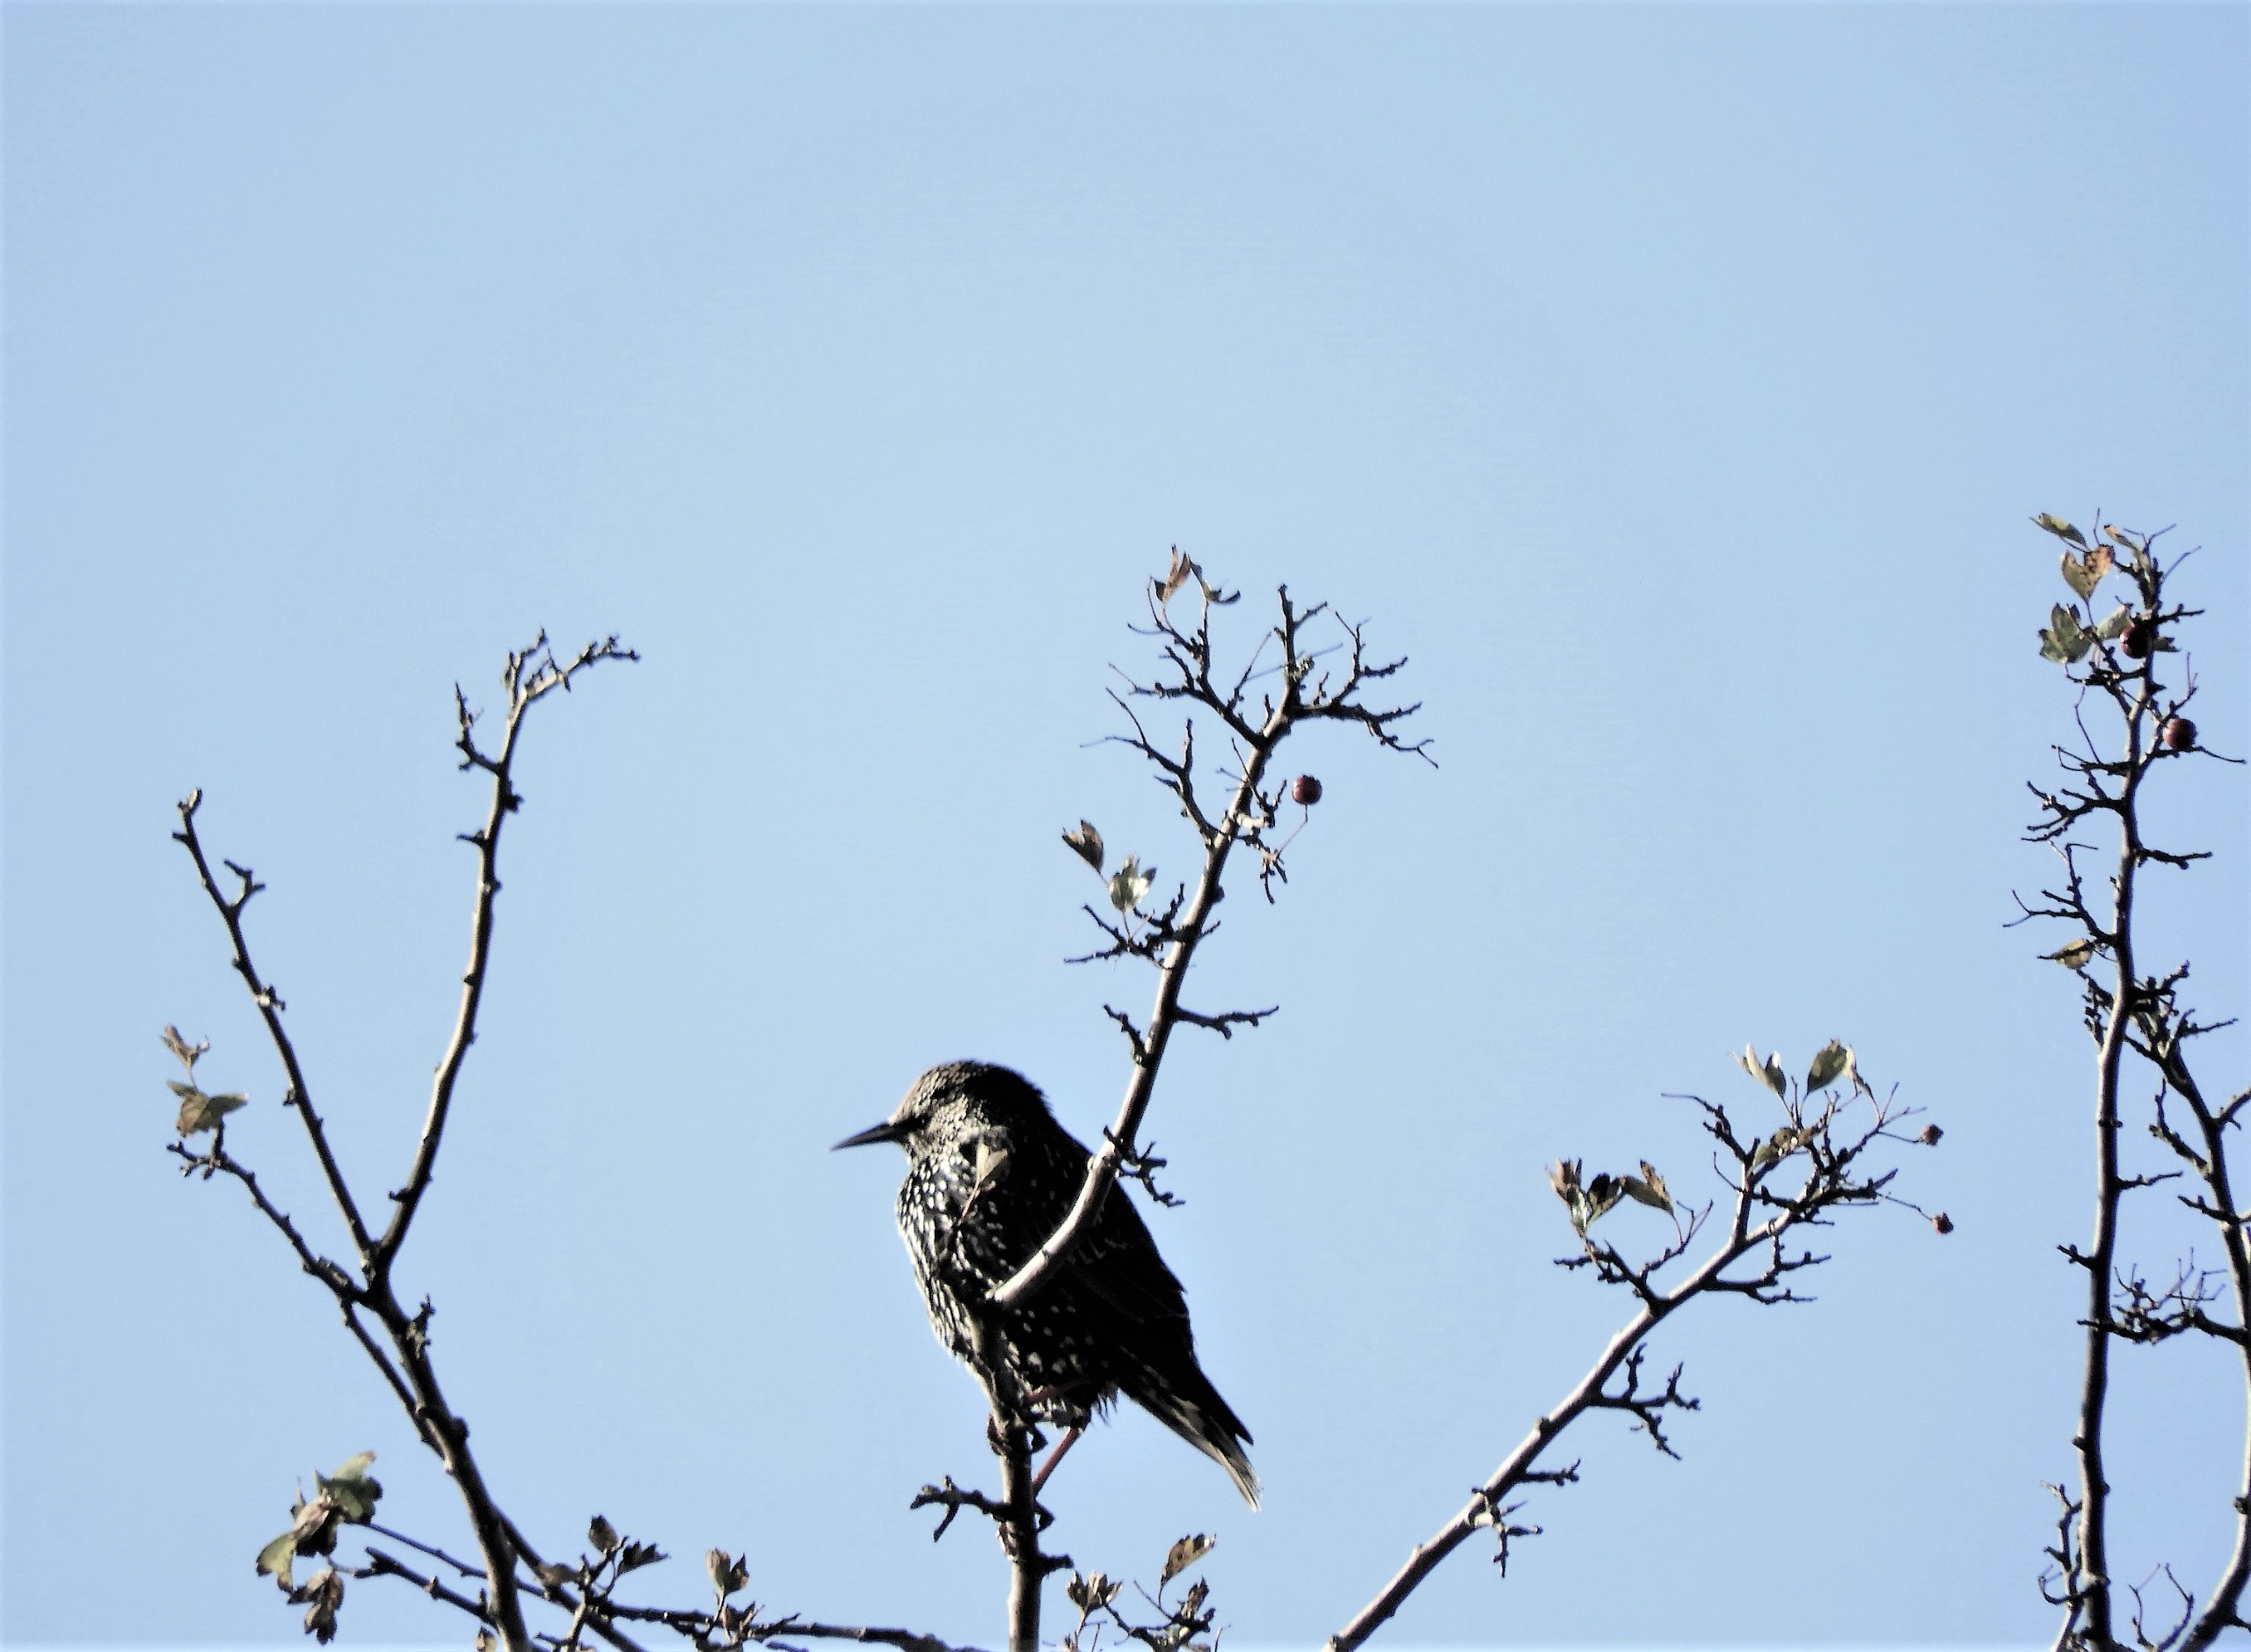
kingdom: Animalia
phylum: Chordata
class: Aves
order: Passeriformes
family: Sturnidae
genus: Sturnus
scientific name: Sturnus vulgaris
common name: Stær
